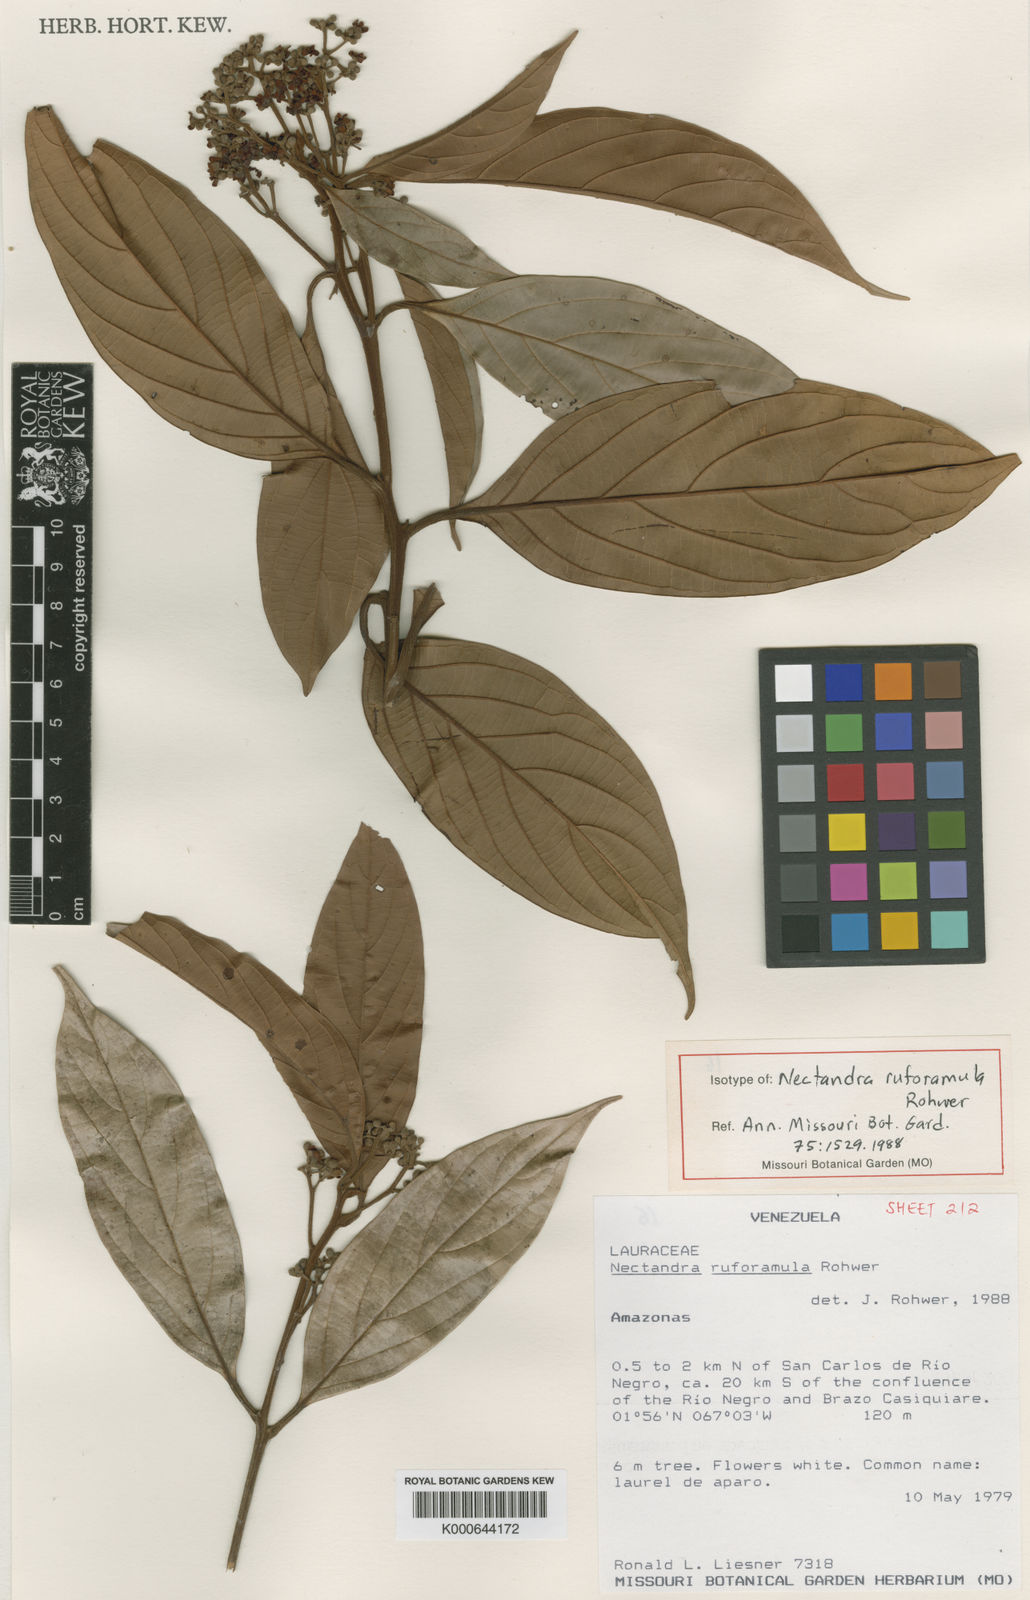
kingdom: Plantae
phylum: Tracheophyta
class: Magnoliopsida
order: Laurales
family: Lauraceae
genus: Nectandra
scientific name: Nectandra ruforamula
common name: Rustytwig nectandra
